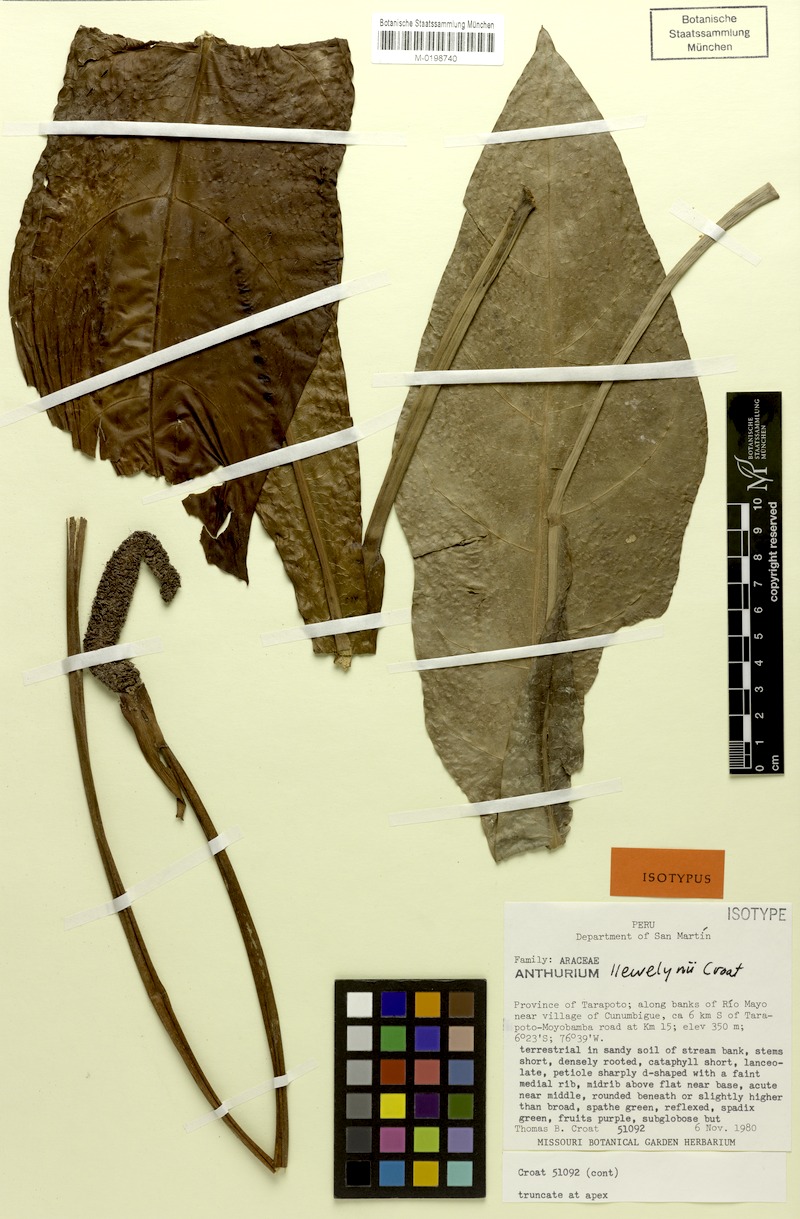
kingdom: Plantae
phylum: Tracheophyta
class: Liliopsida
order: Alismatales
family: Araceae
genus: Anthurium
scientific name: Anthurium llewellynii
